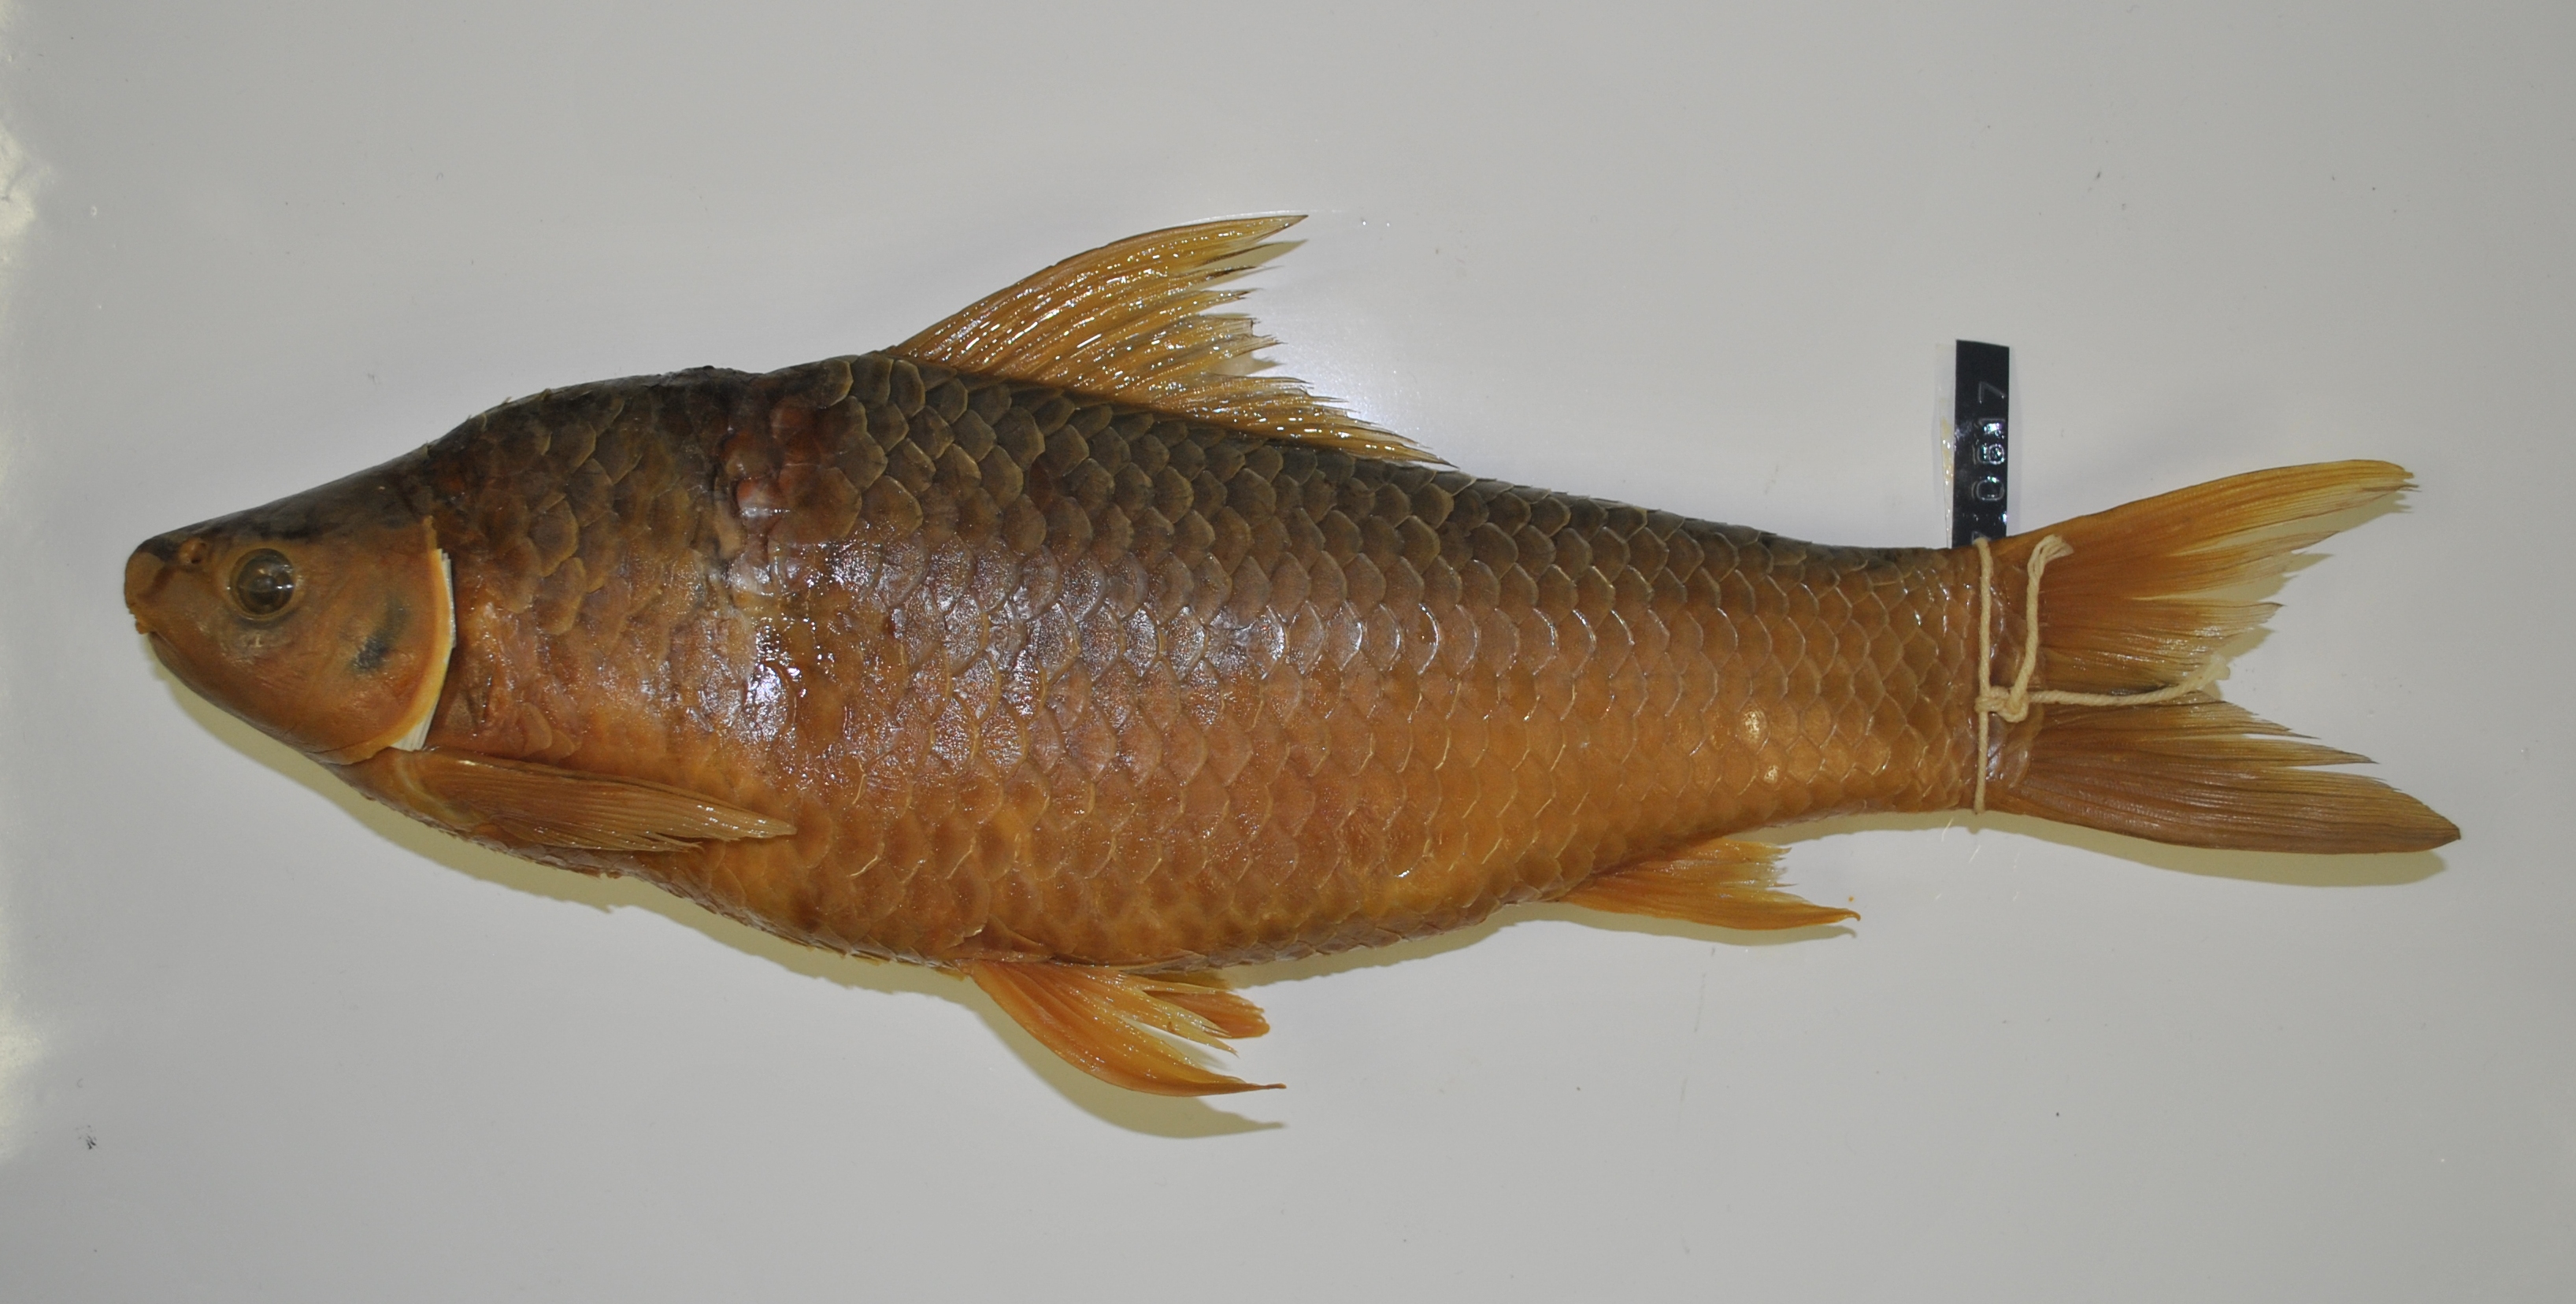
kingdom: Animalia
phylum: Chordata
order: Cypriniformes
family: Cyprinidae
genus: Labeo
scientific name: Labeo rosae
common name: Rednose labeo
